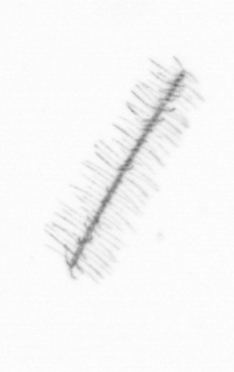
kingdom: Chromista
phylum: Ochrophyta
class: Bacillariophyceae
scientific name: Bacillariophyceae
